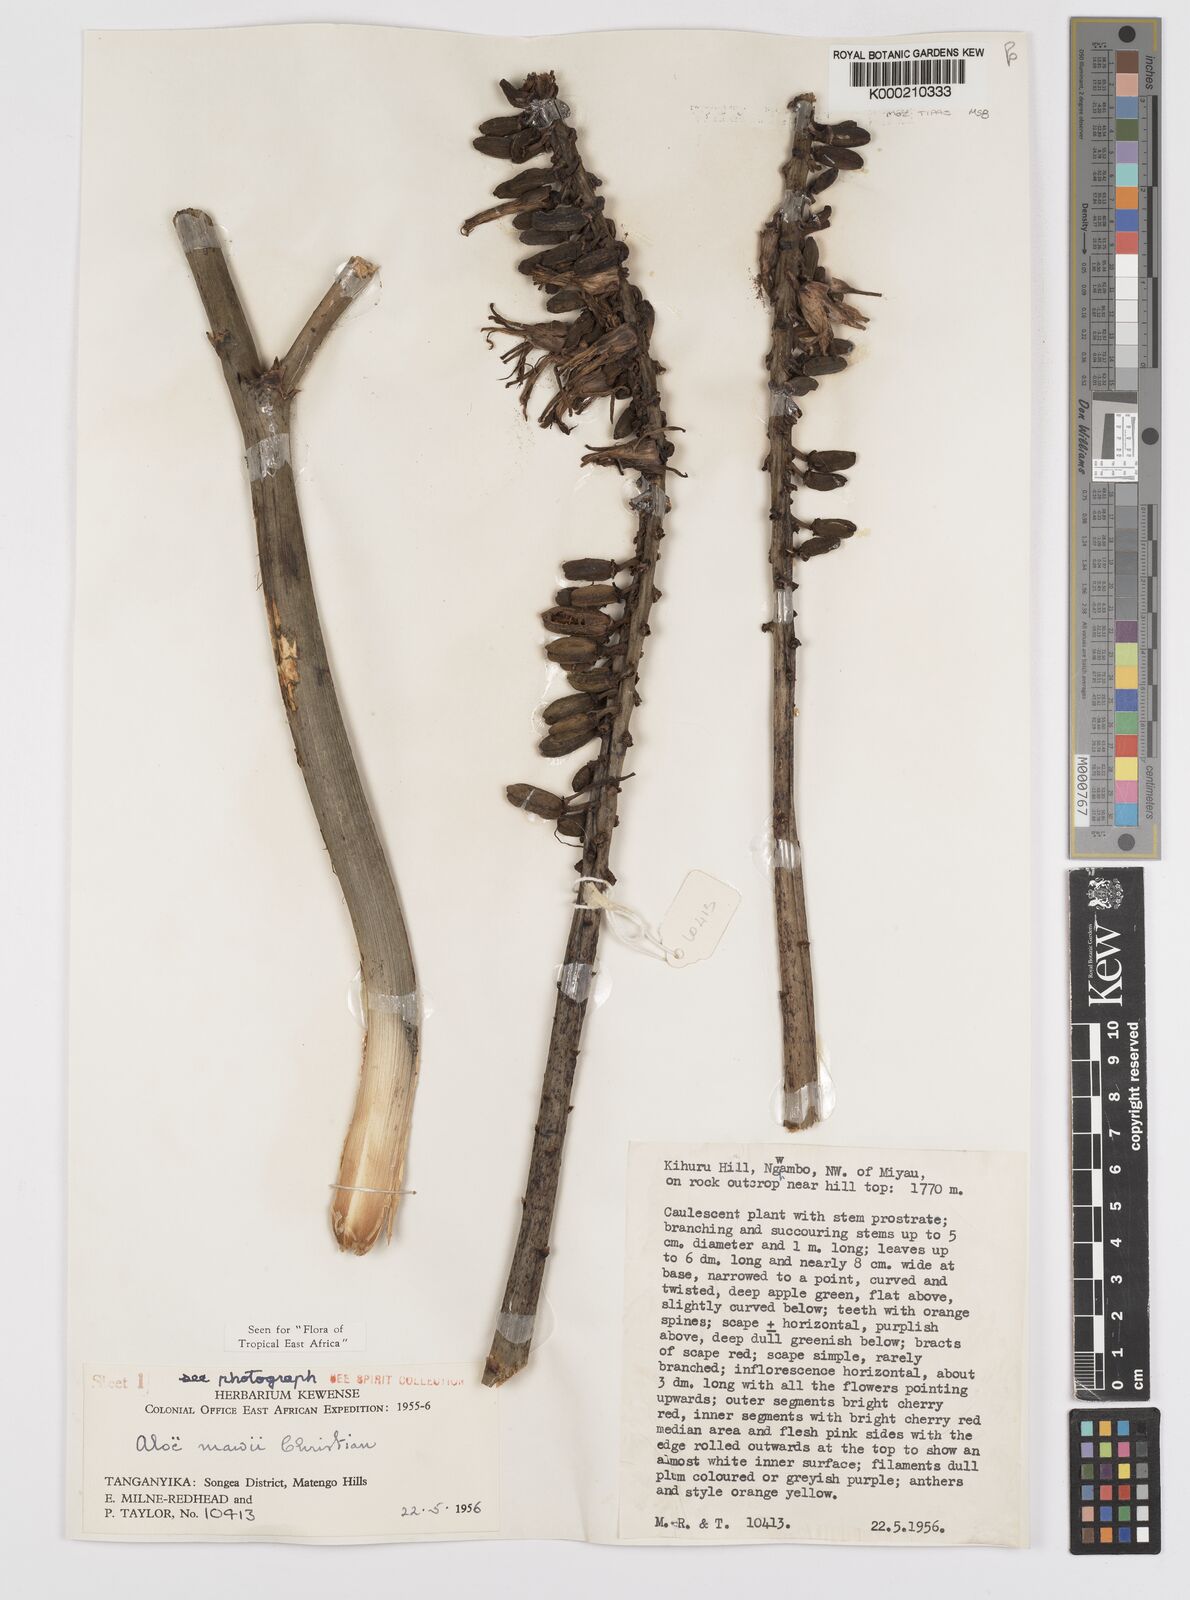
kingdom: Plantae
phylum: Tracheophyta
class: Liliopsida
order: Asparagales
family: Asphodelaceae
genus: Aloe
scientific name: Aloe mawii
